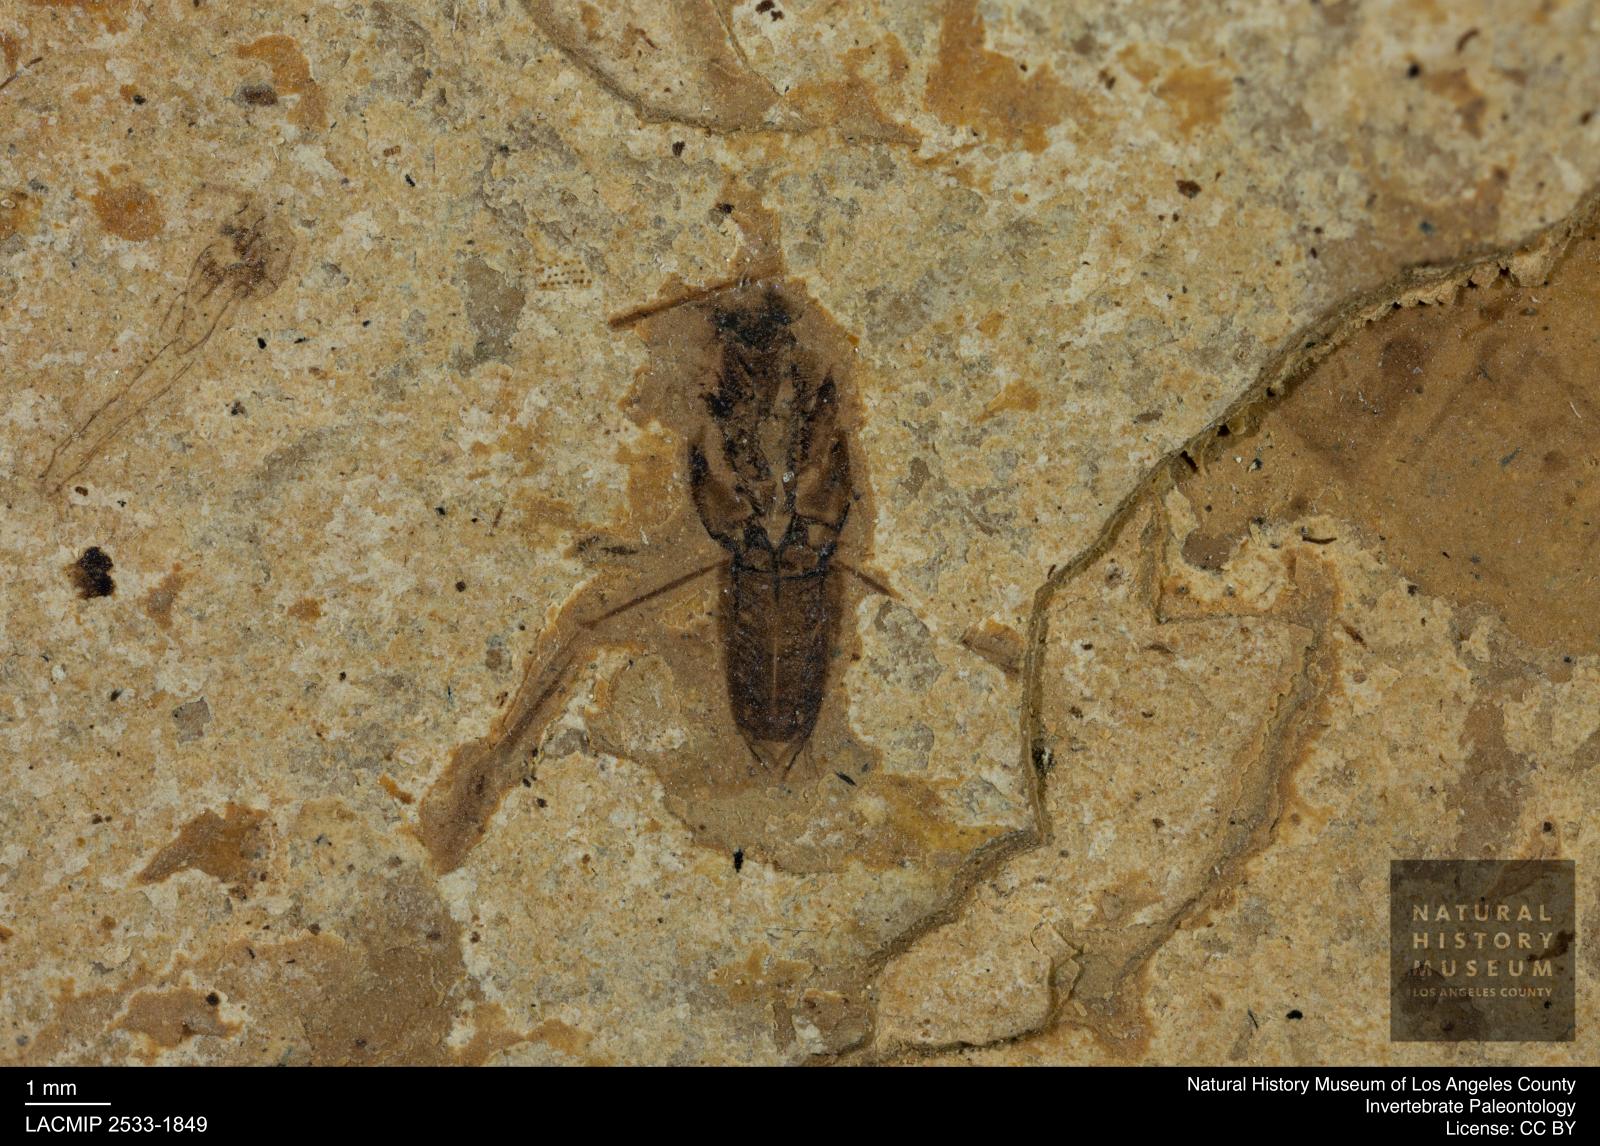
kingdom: Animalia
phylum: Arthropoda
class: Insecta
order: Hemiptera
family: Notonectidae
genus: Notonecta
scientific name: Notonecta
